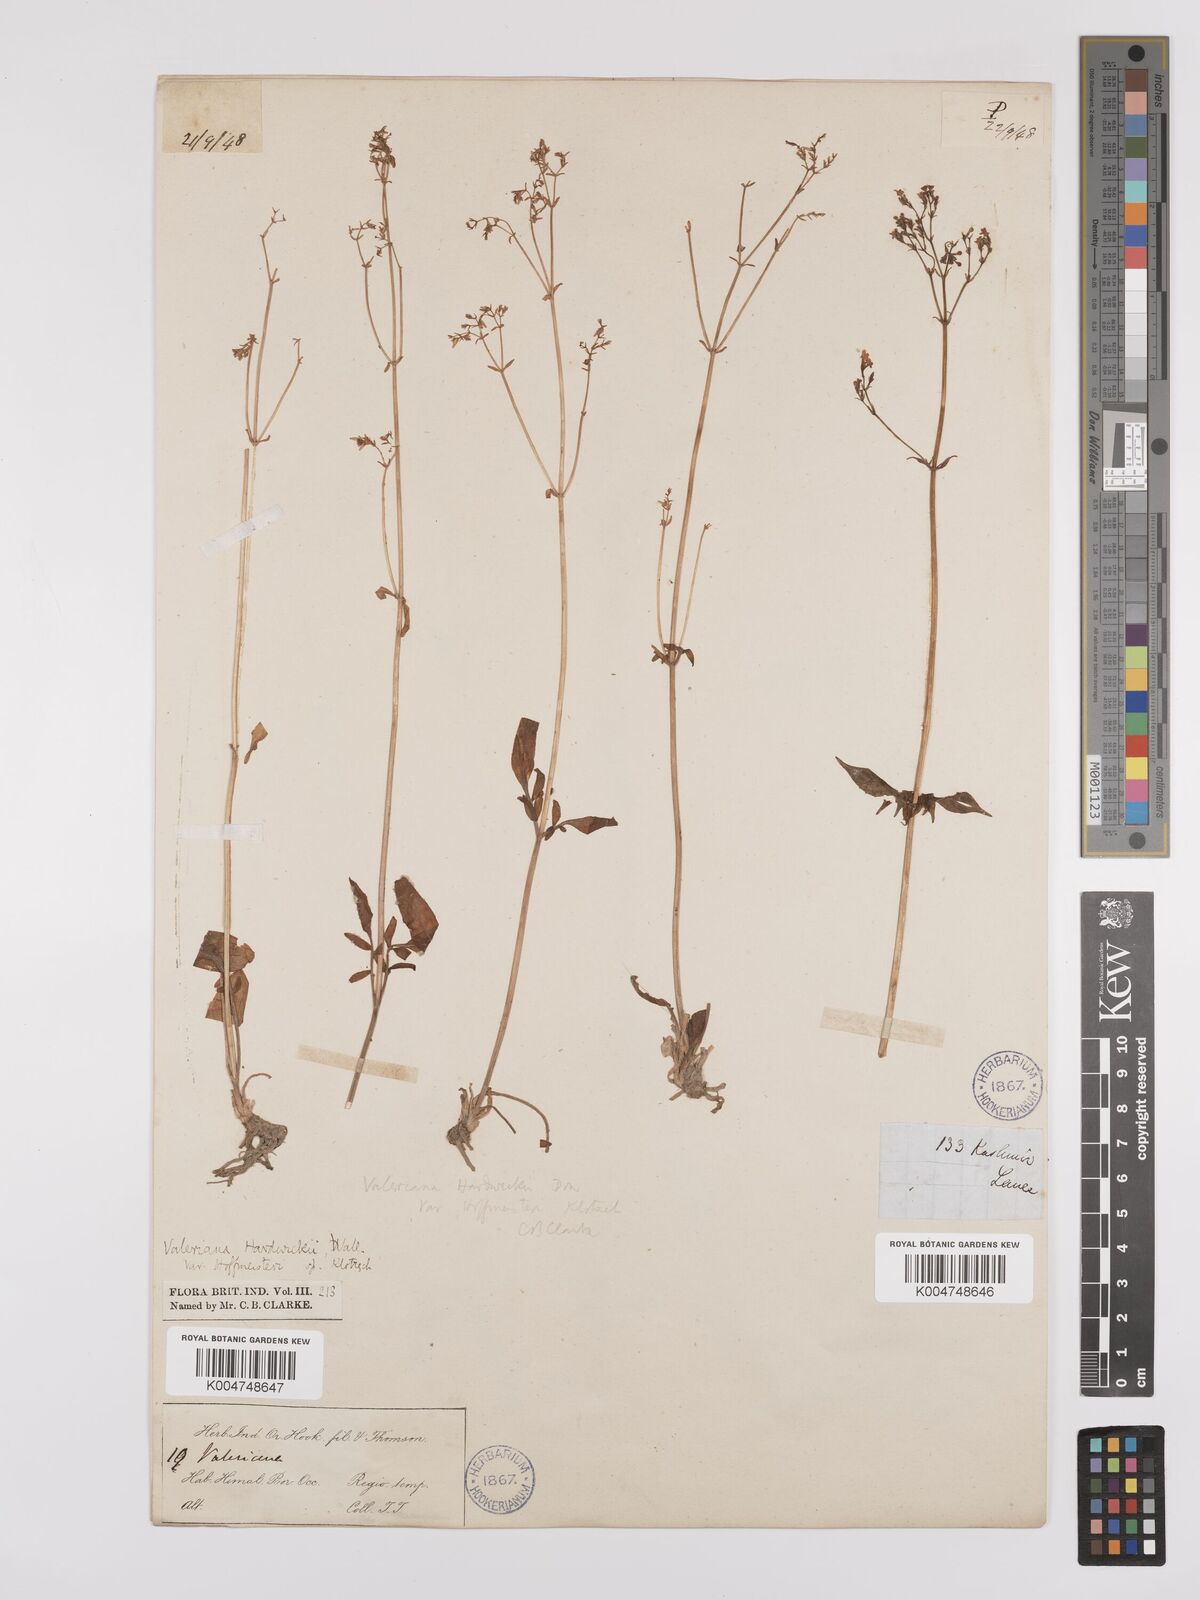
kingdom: Plantae
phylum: Tracheophyta
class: Magnoliopsida
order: Dipsacales
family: Caprifoliaceae
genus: Valeriana
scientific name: Valeriana hardwickei
